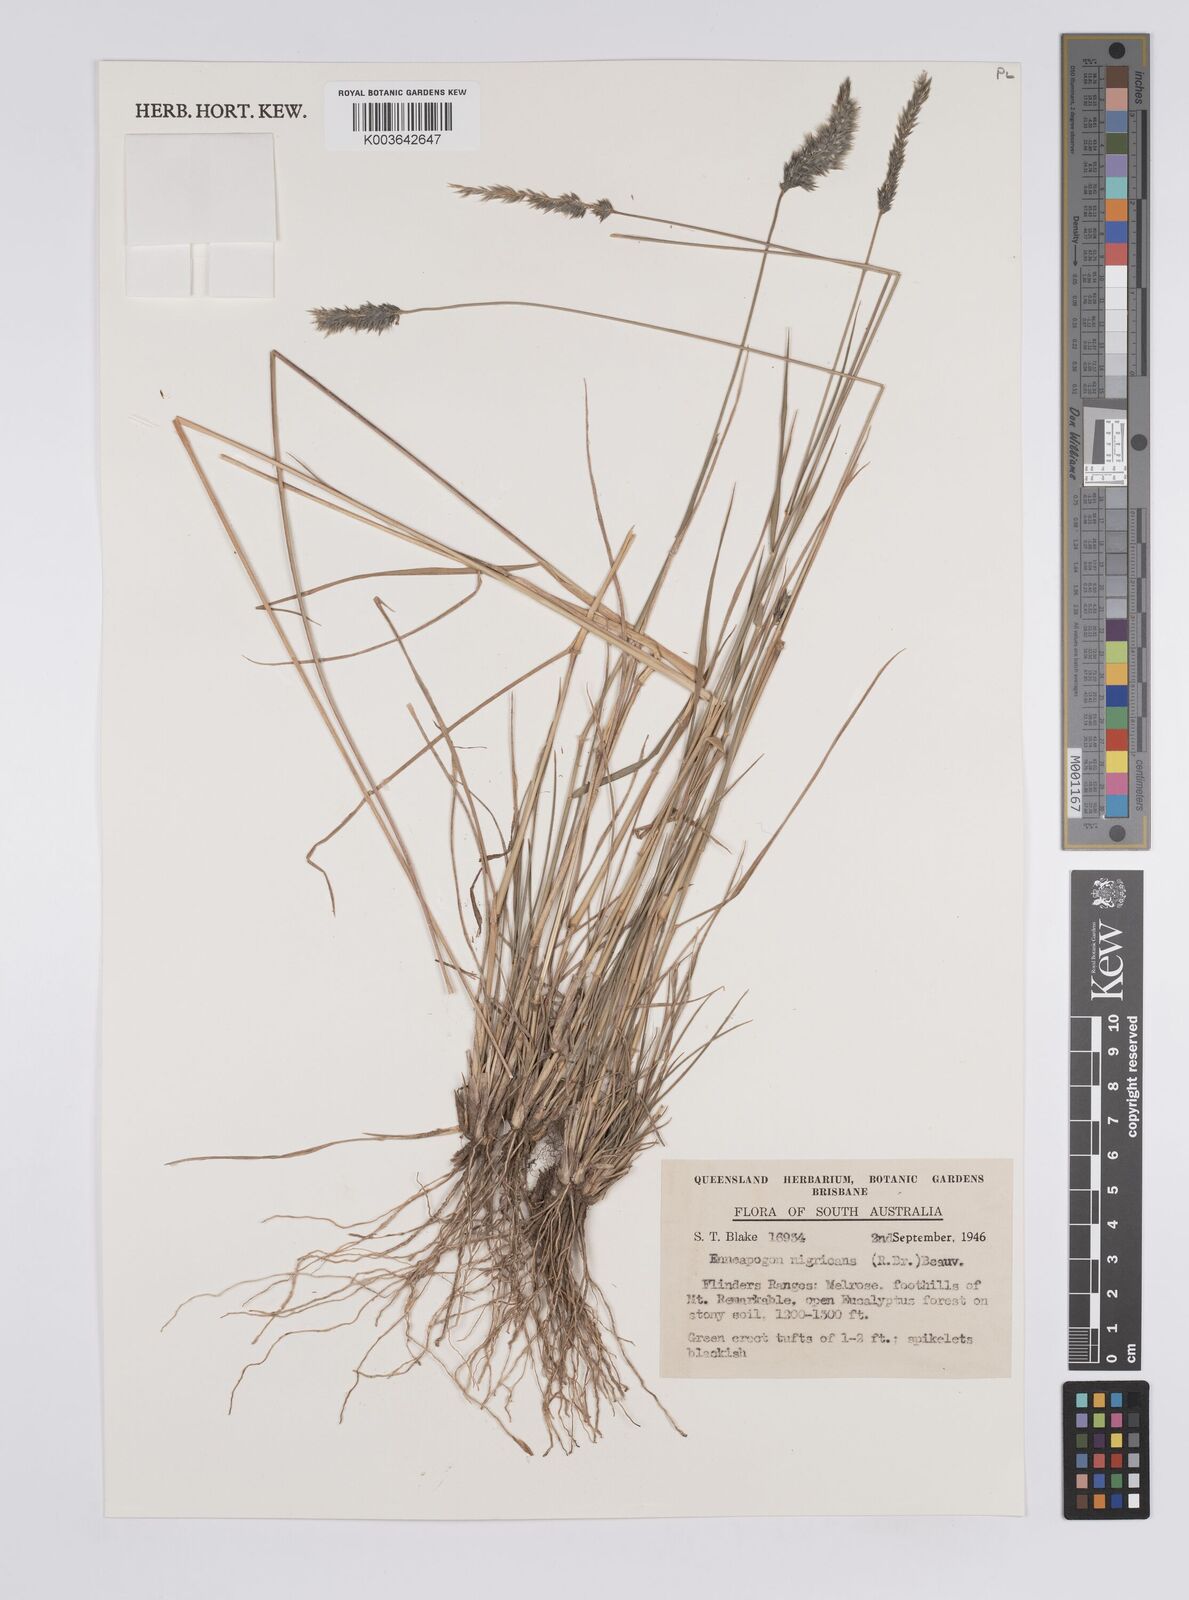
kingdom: Plantae
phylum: Tracheophyta
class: Liliopsida
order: Poales
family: Poaceae
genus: Enneapogon
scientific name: Enneapogon nigricans
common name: Pappus grass
